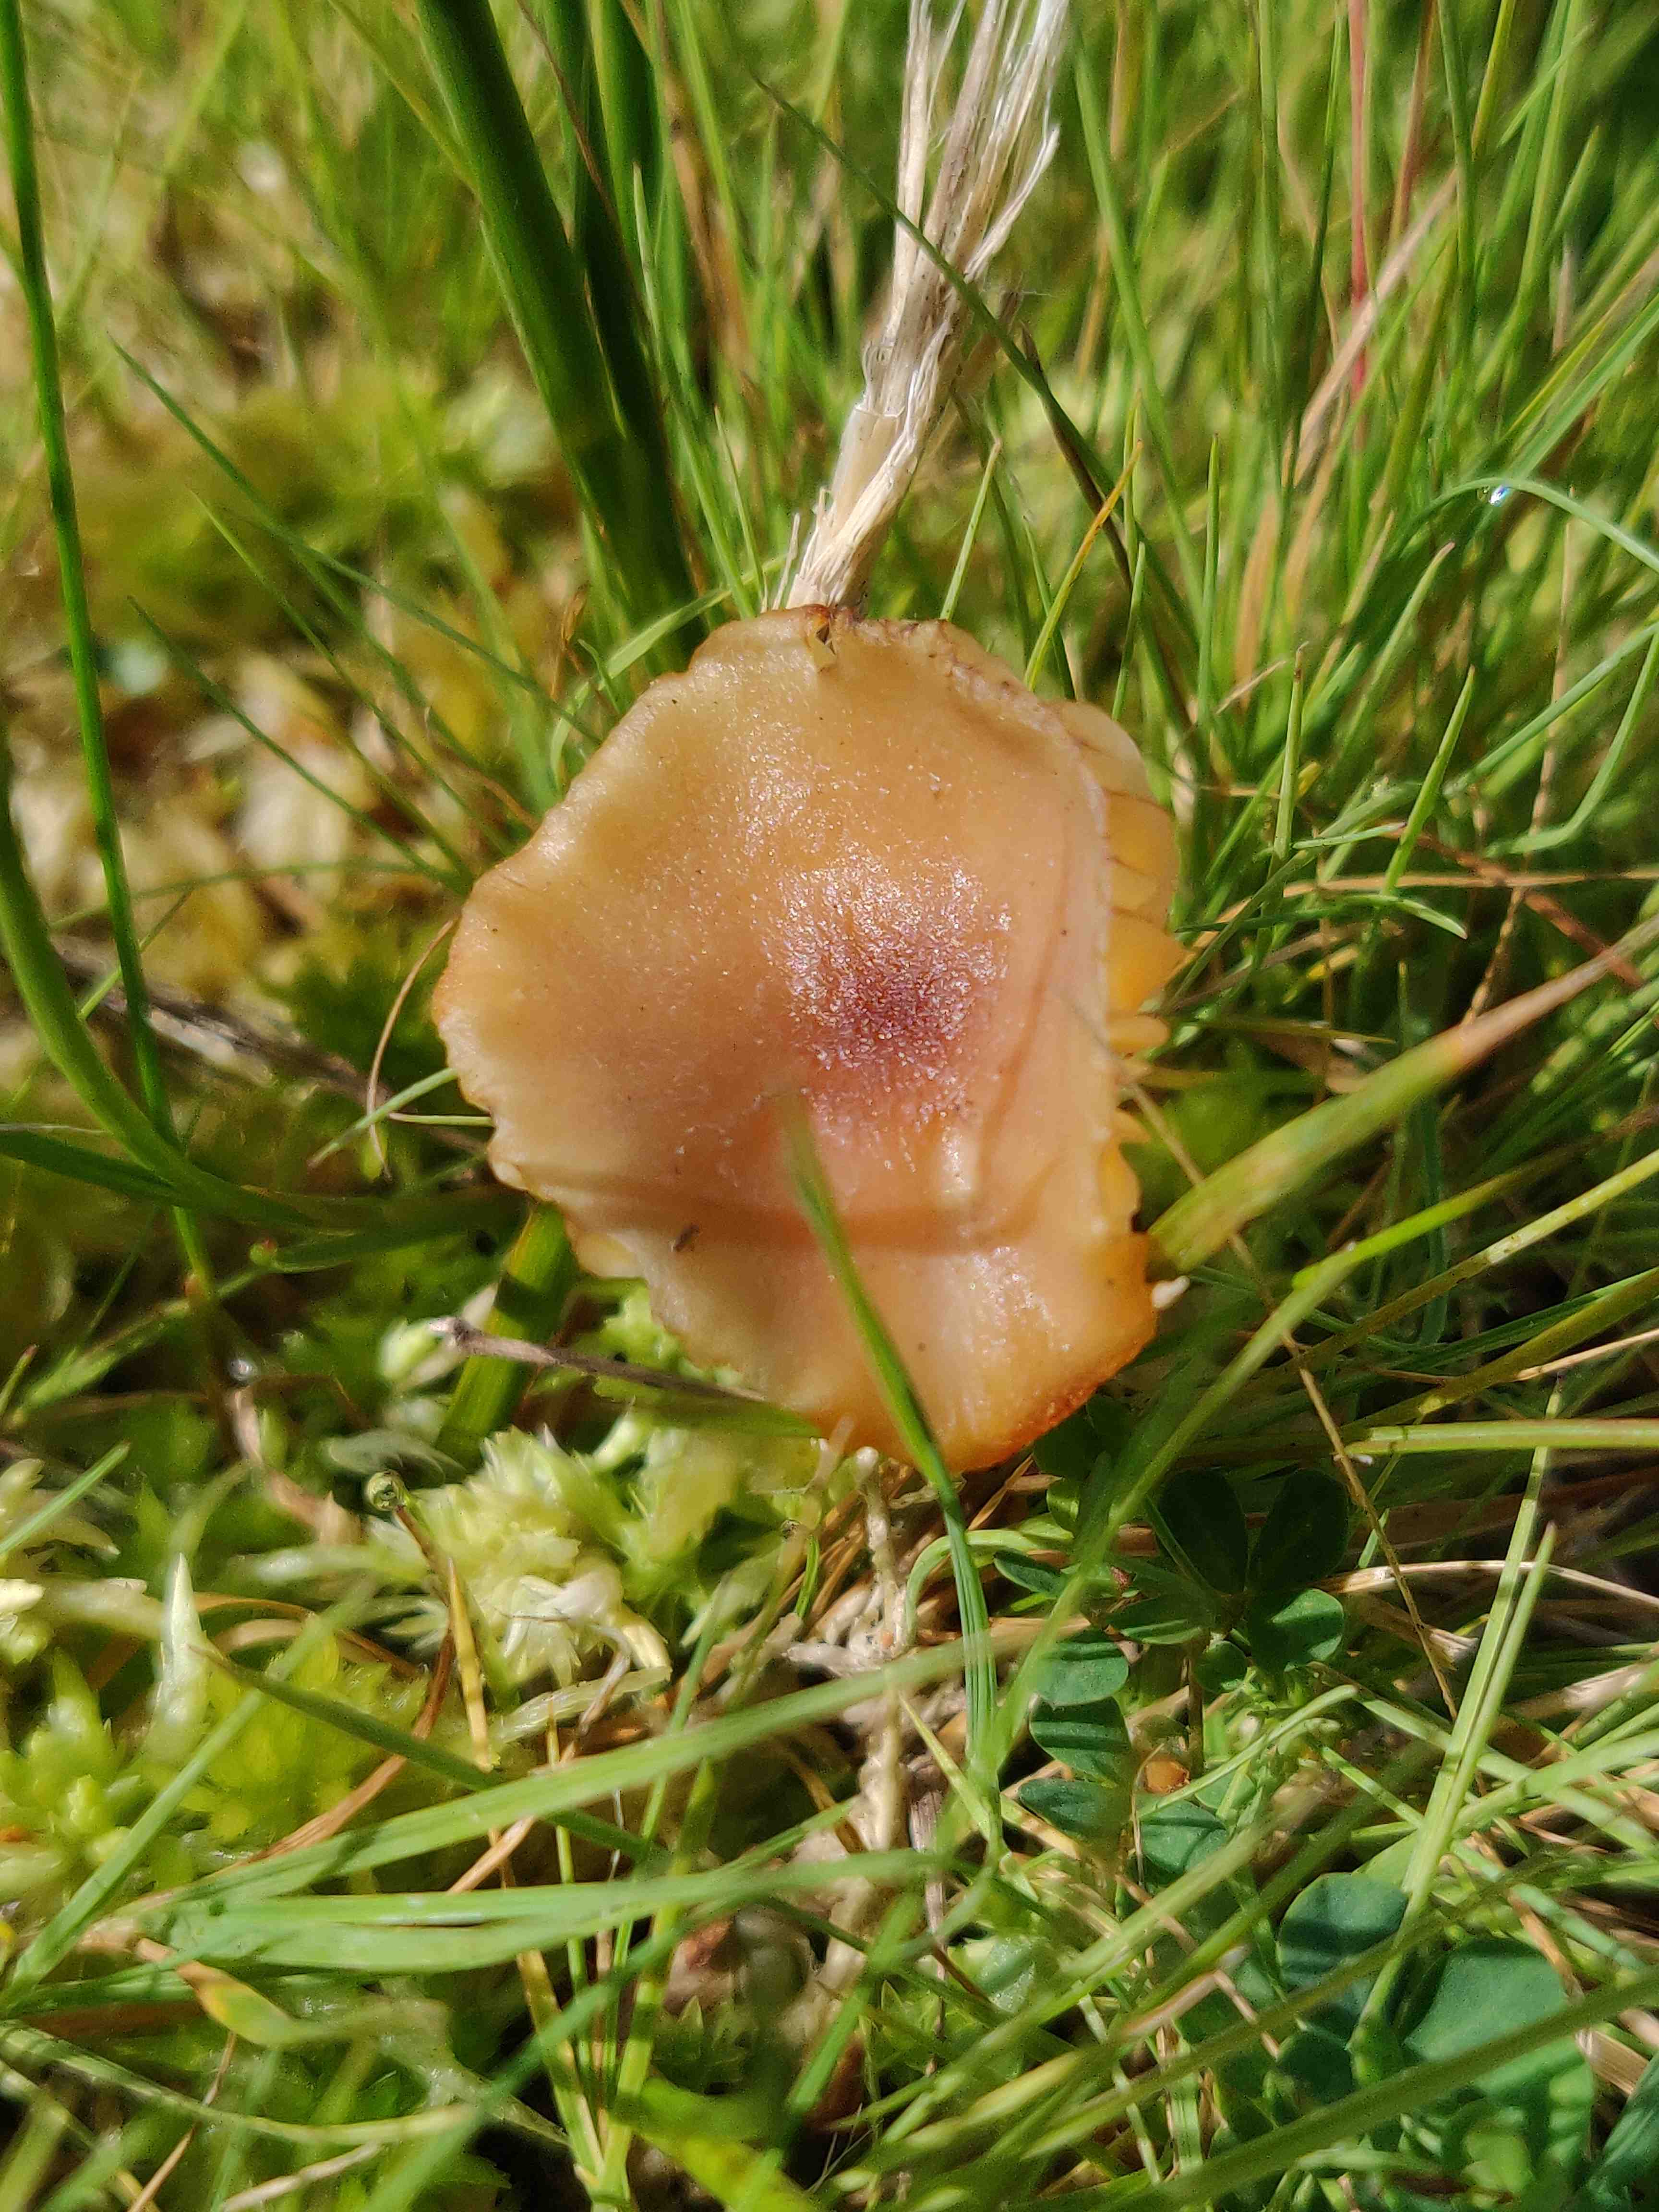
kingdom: Fungi
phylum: Basidiomycota
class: Agaricomycetes
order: Agaricales
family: Hygrophoraceae
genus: Hygrocybe
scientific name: Hygrocybe cantharellus
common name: kantarel-vokshat
